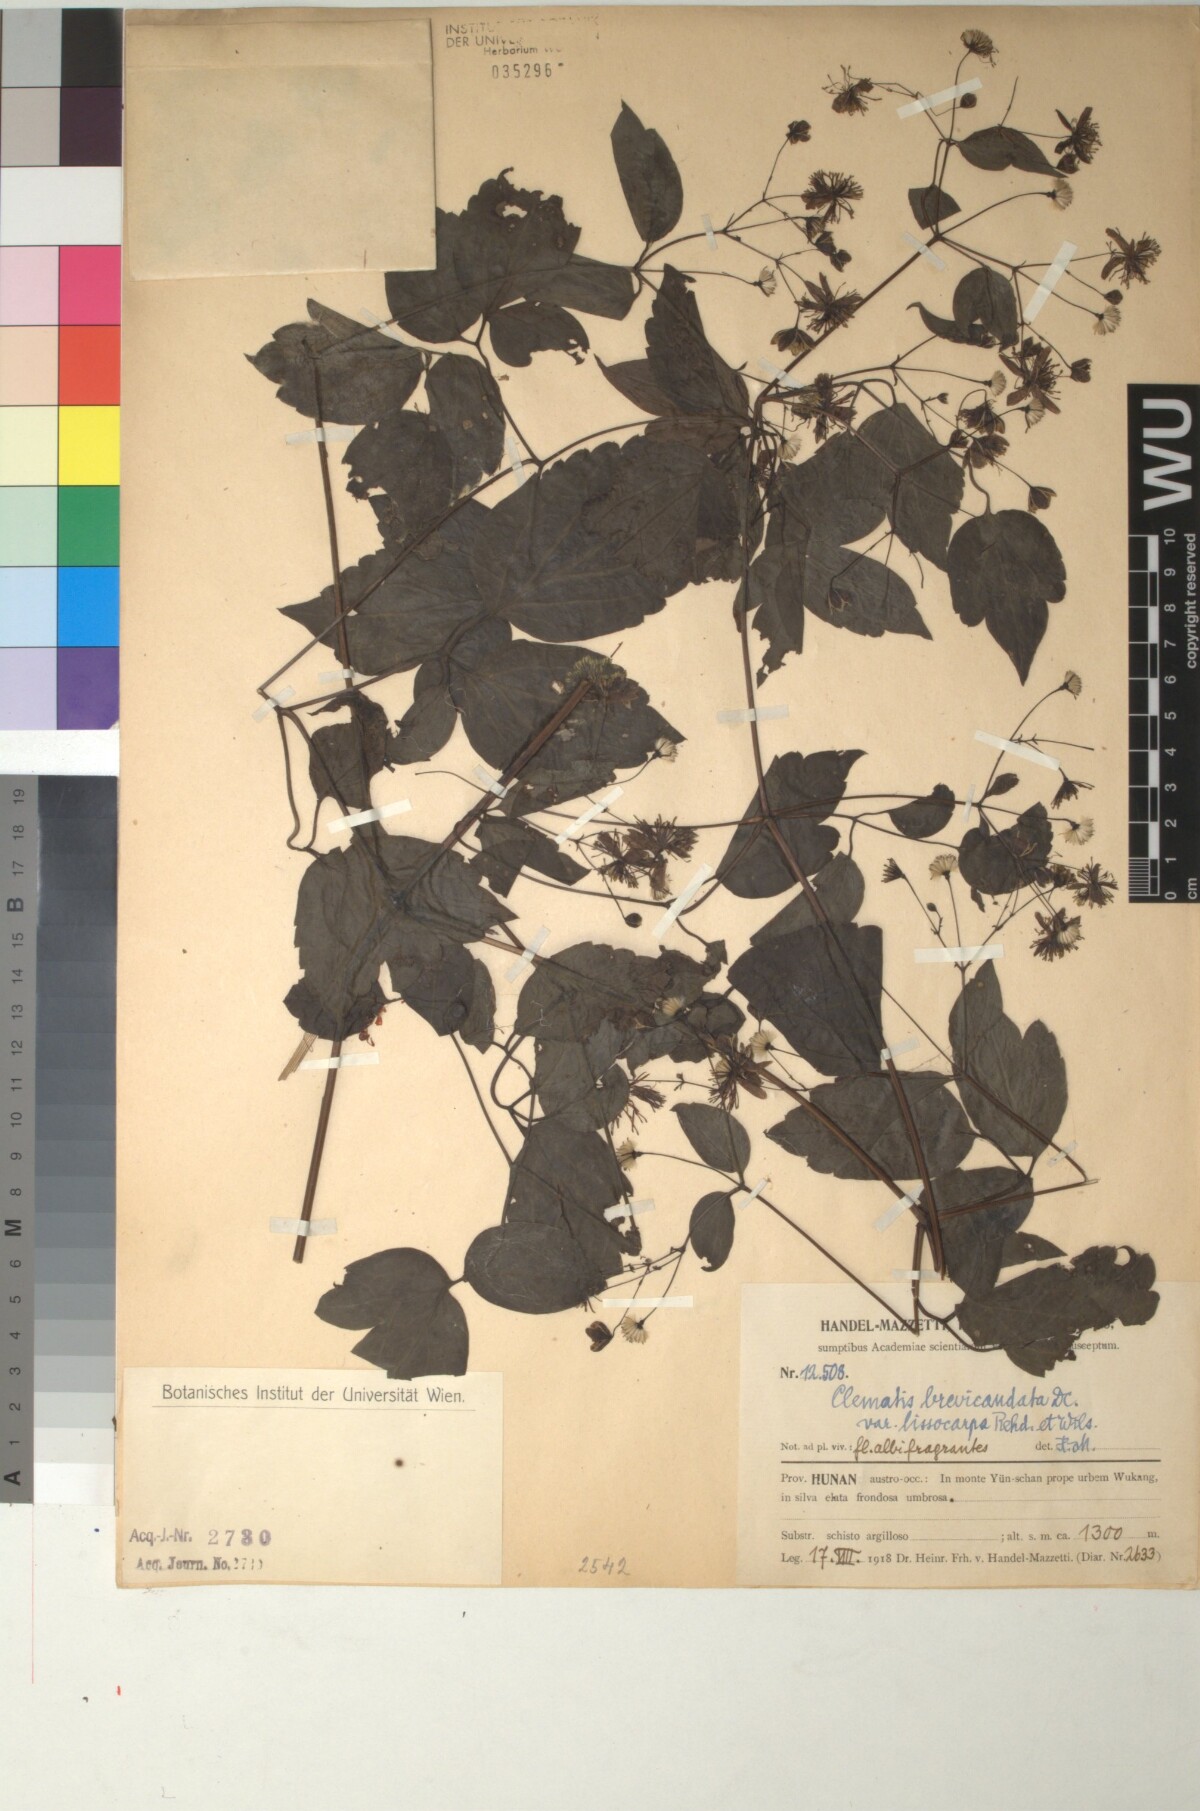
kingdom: Plantae
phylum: Tracheophyta
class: Magnoliopsida
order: Ranunculales
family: Ranunculaceae
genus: Clematis
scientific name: Clematis puberula
